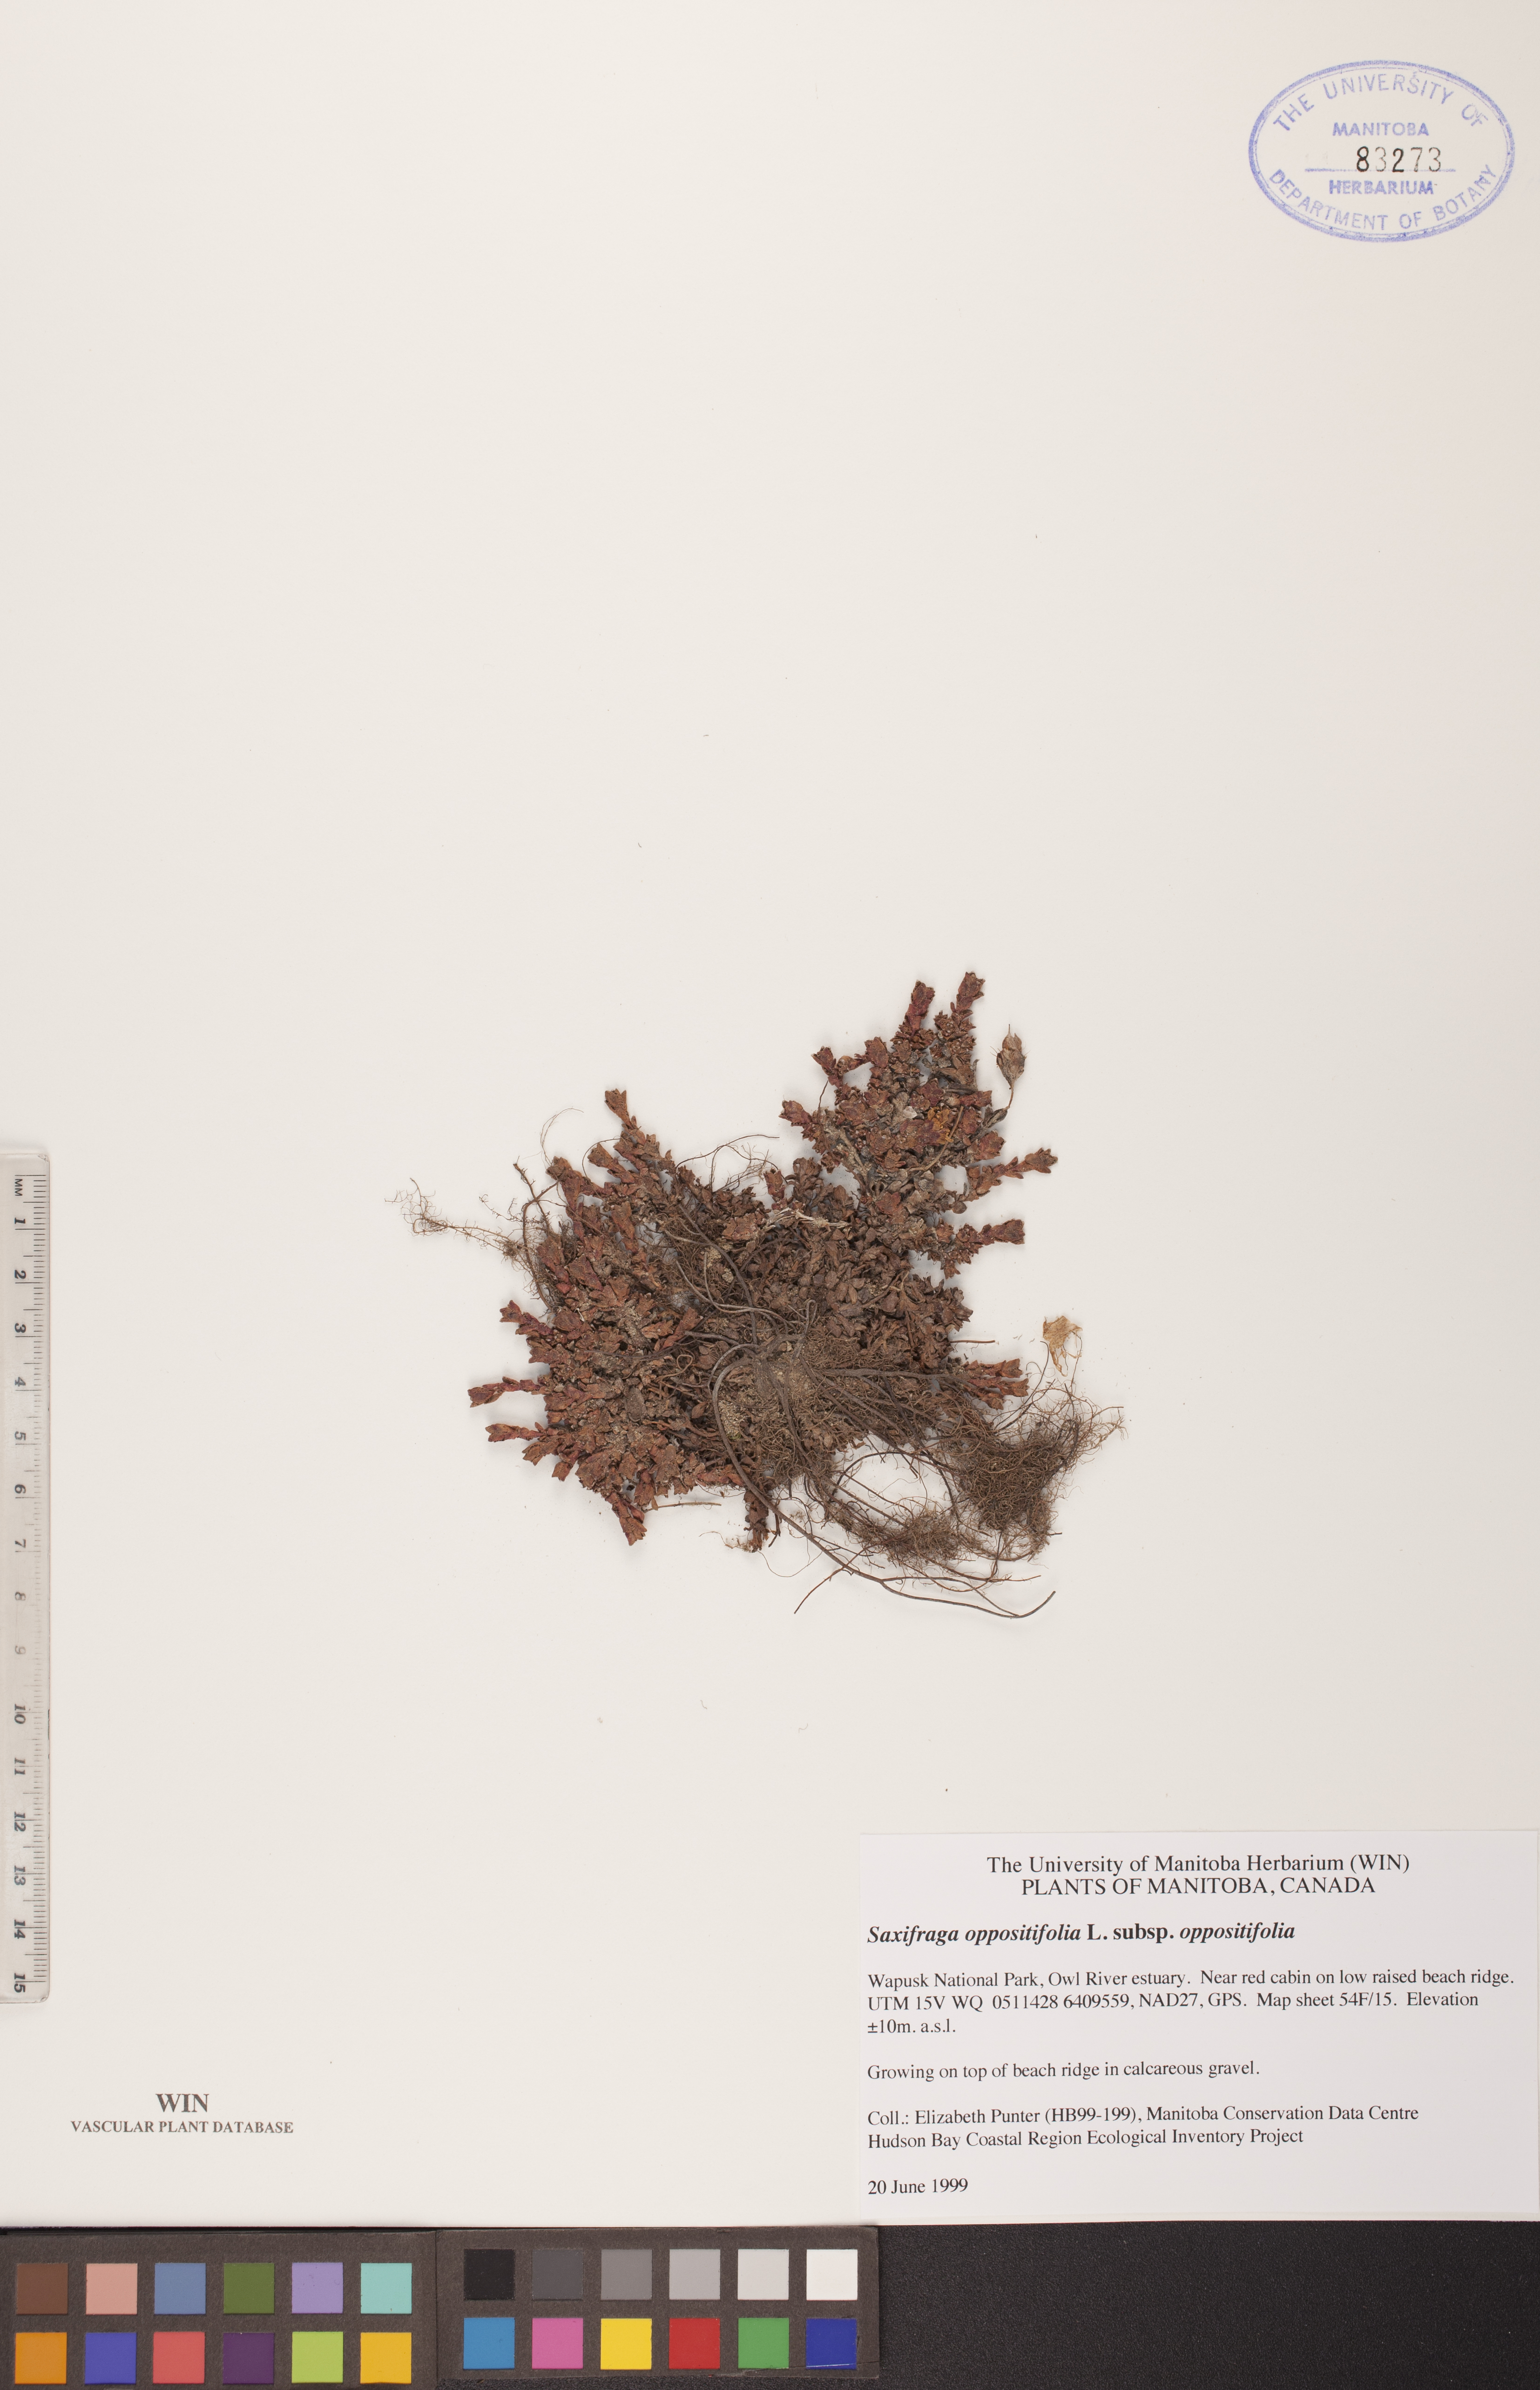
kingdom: Plantae
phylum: Tracheophyta
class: Magnoliopsida
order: Saxifragales
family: Saxifragaceae
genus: Saxifraga
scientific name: Saxifraga oppositifolia
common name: Purple saxifrage
